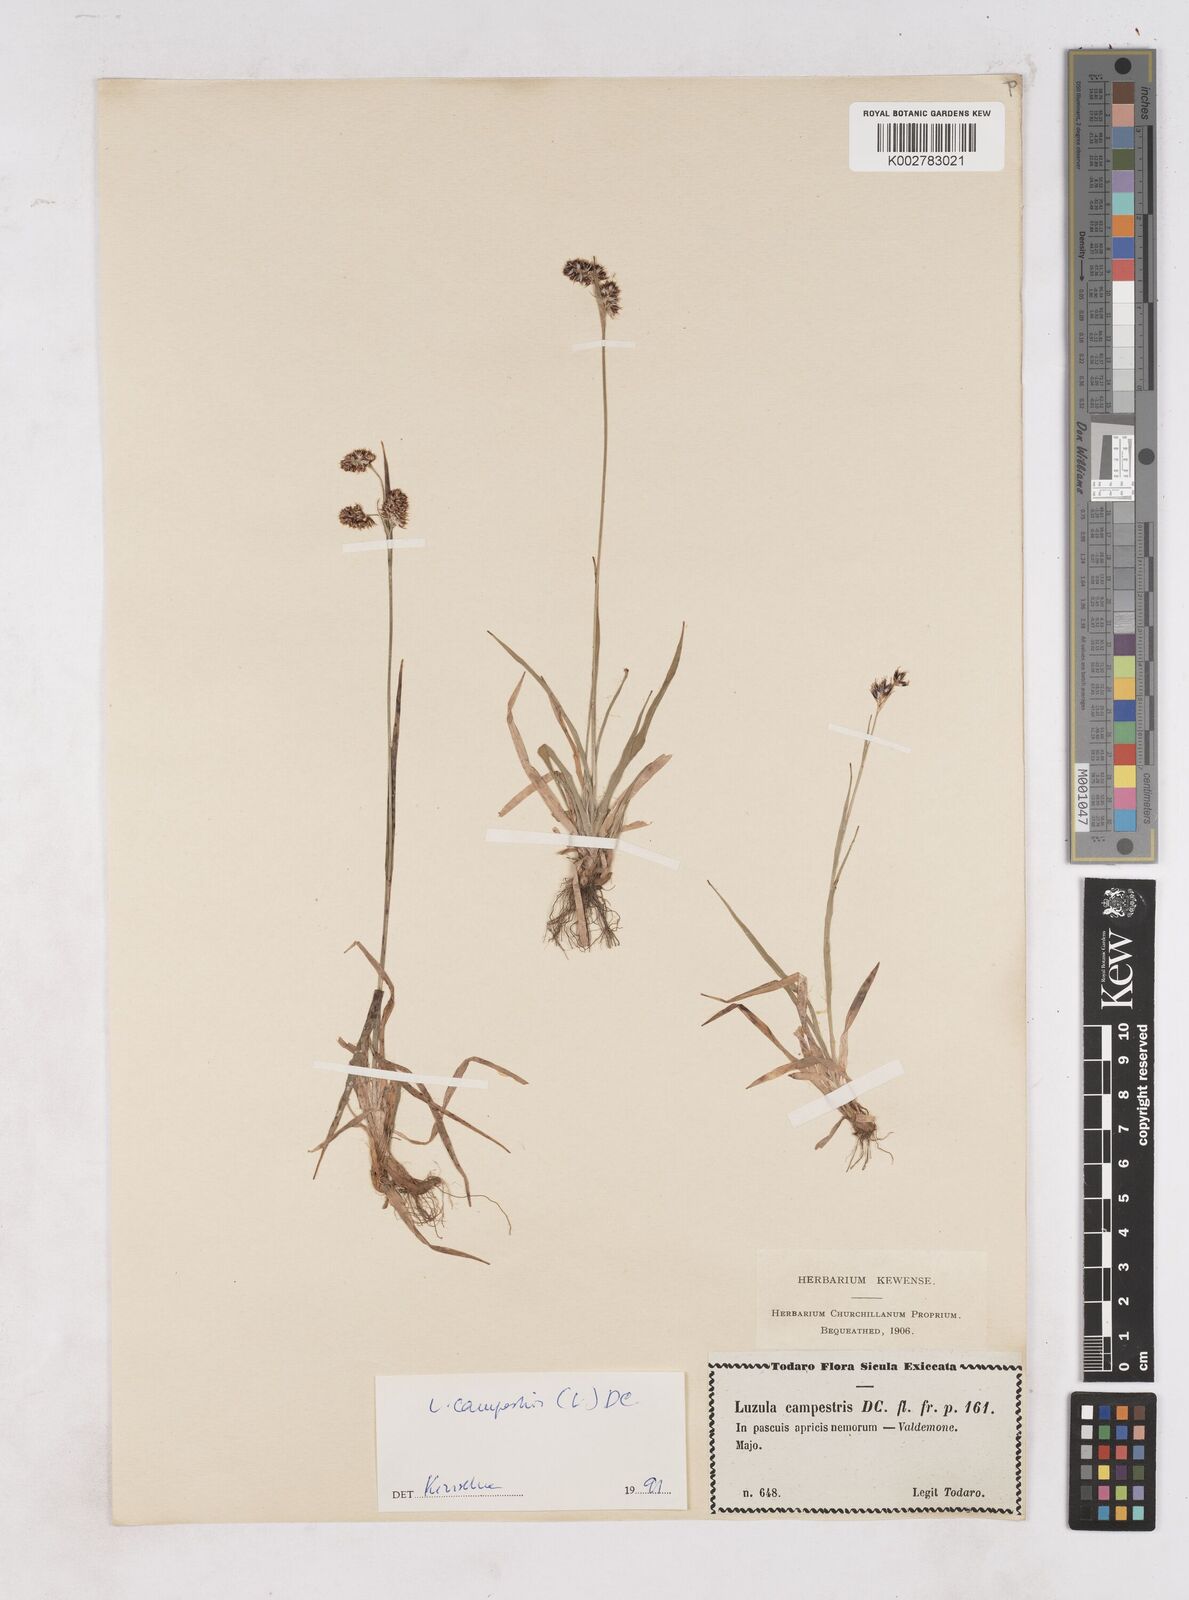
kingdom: Plantae
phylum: Tracheophyta
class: Liliopsida
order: Poales
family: Juncaceae
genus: Luzula
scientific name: Luzula campestris
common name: Field wood-rush
